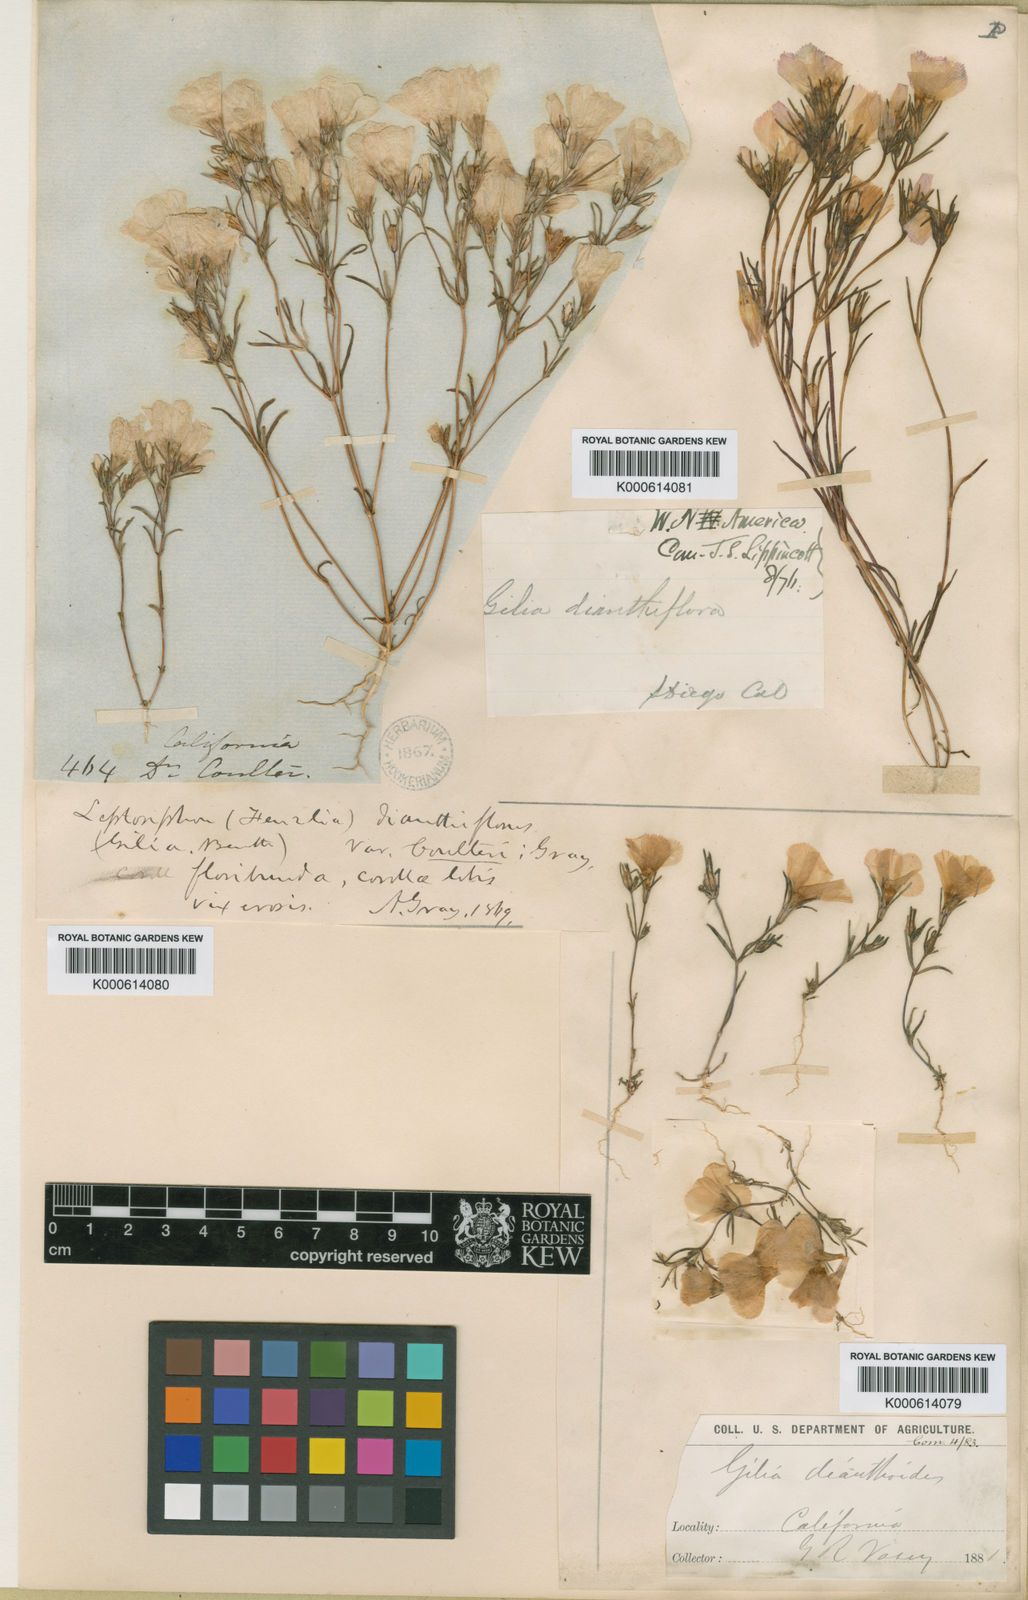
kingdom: Plantae
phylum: Tracheophyta
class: Magnoliopsida
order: Ericales
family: Polemoniaceae
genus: Linanthus
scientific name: Linanthus dianthiflorus
